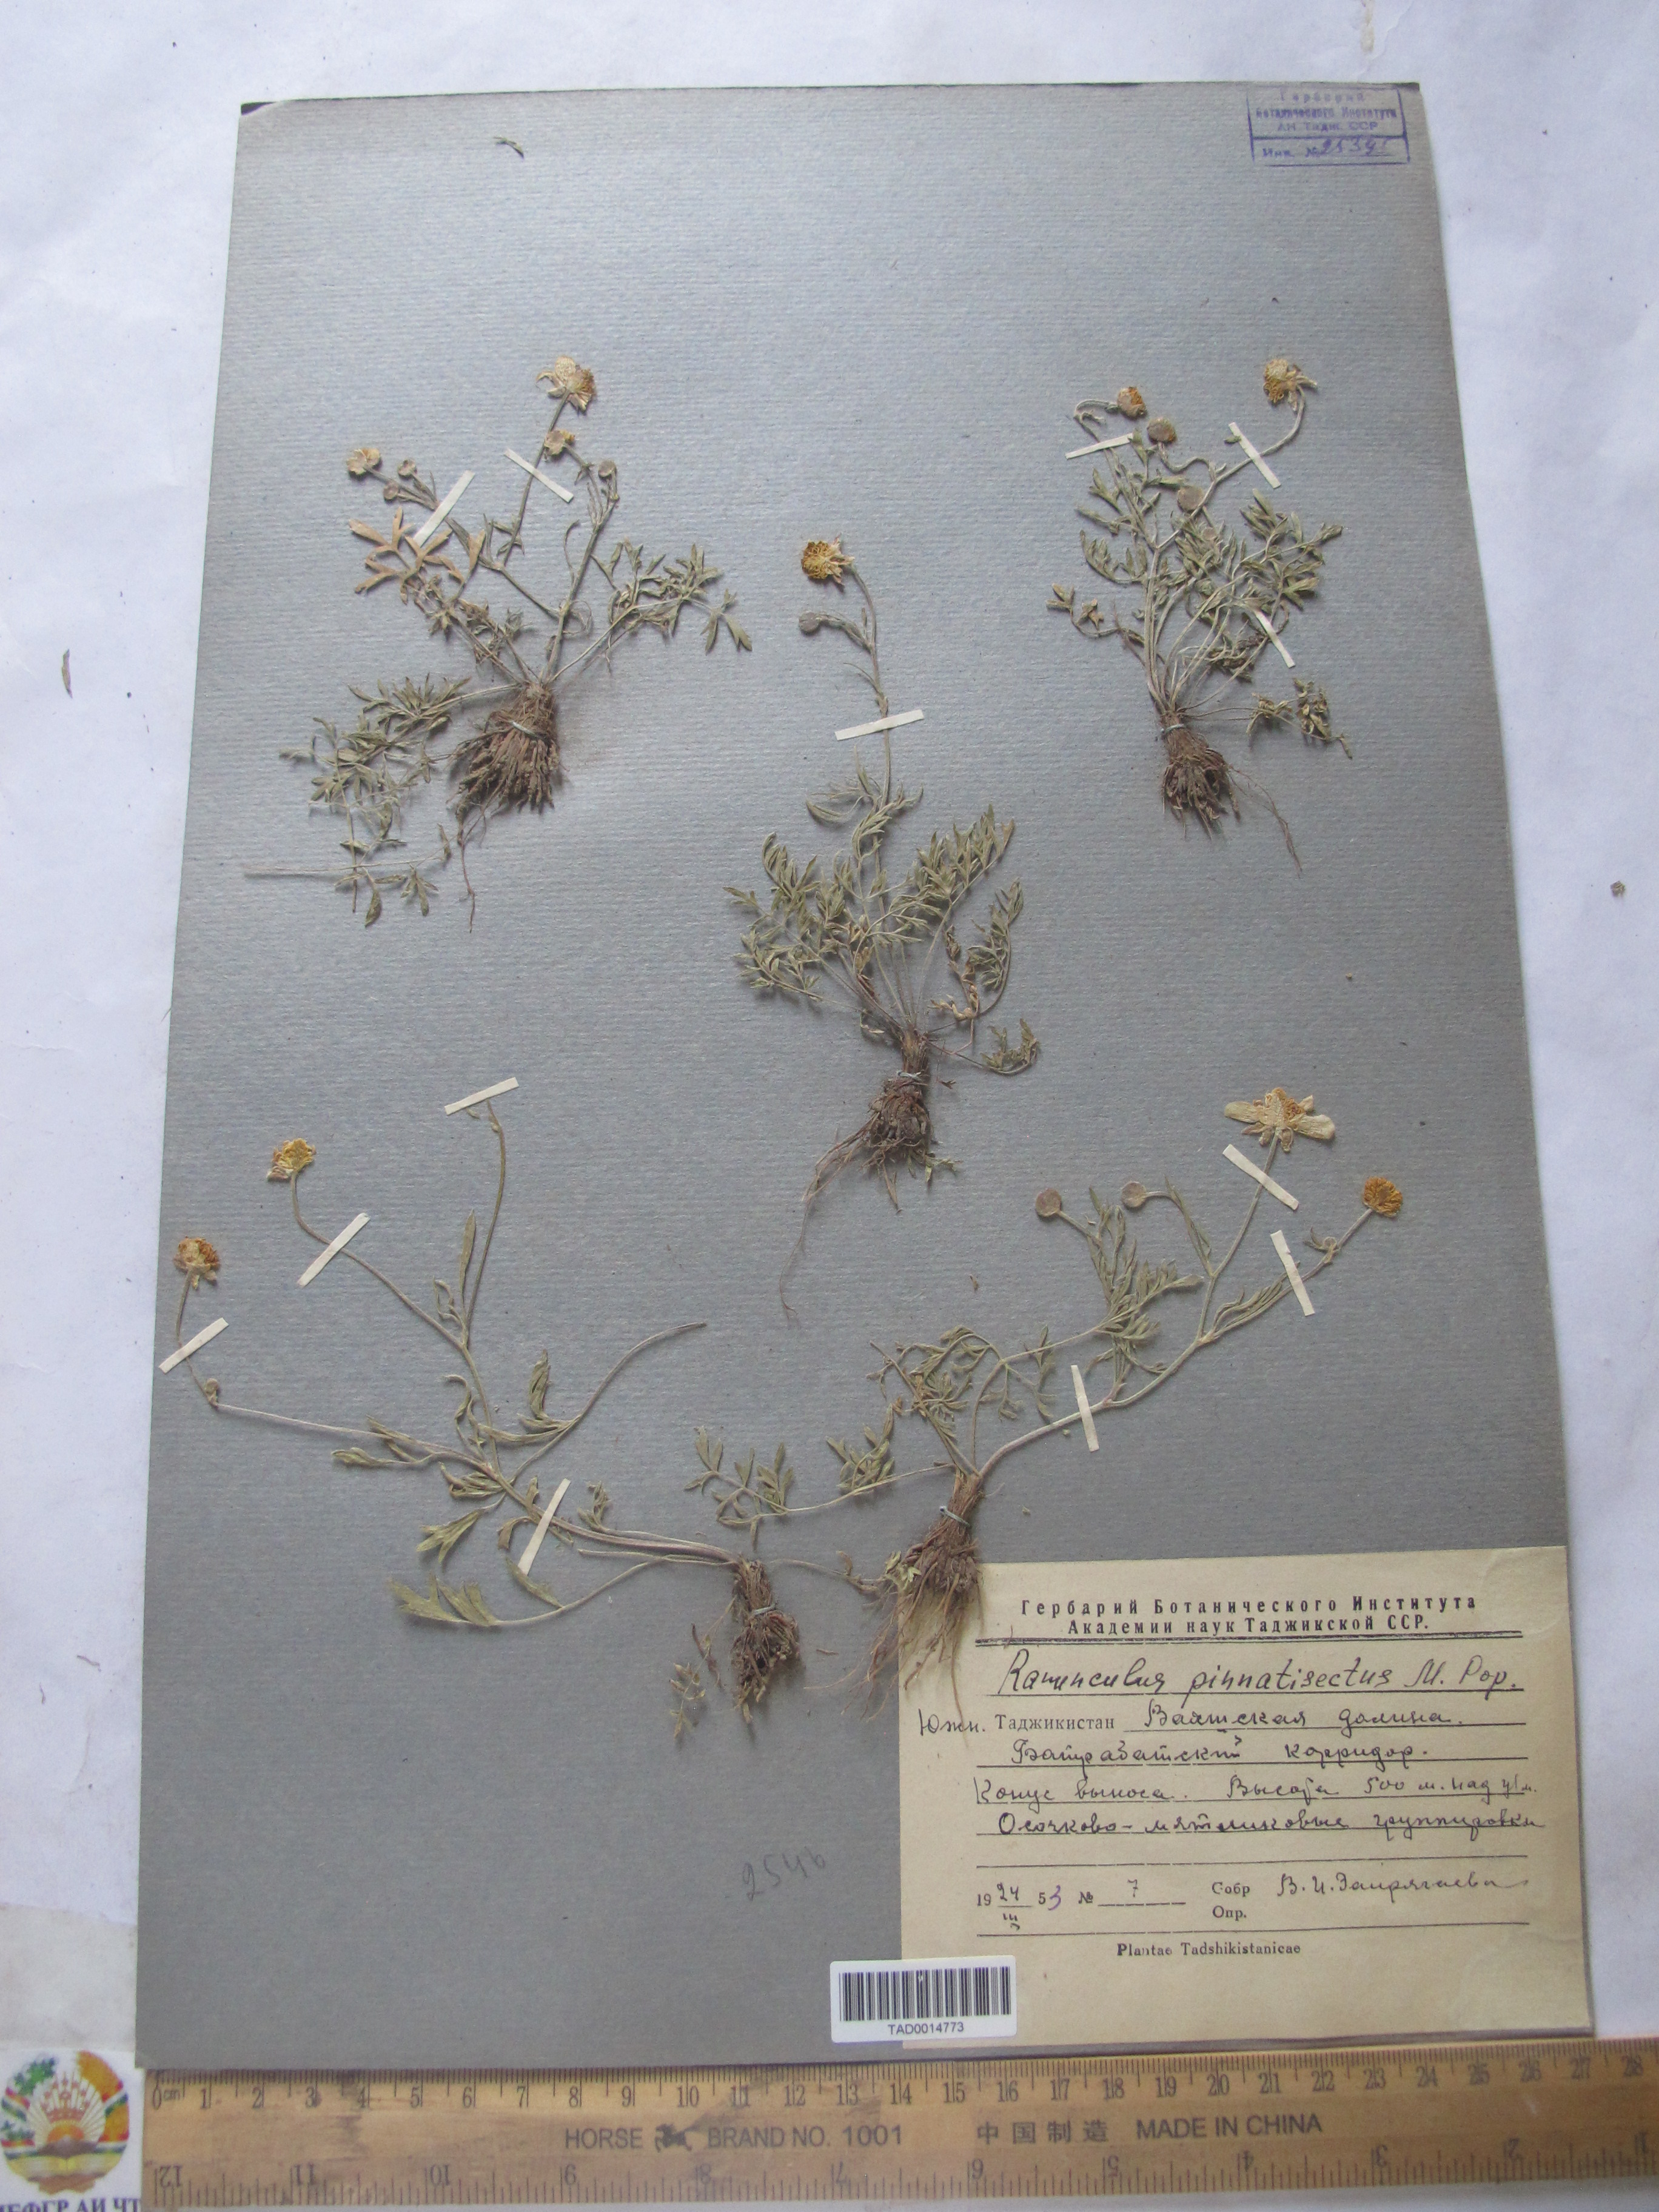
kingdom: Plantae
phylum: Tracheophyta
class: Magnoliopsida
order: Ranunculales
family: Ranunculaceae
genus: Ranunculus
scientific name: Ranunculus pinnatisectus
